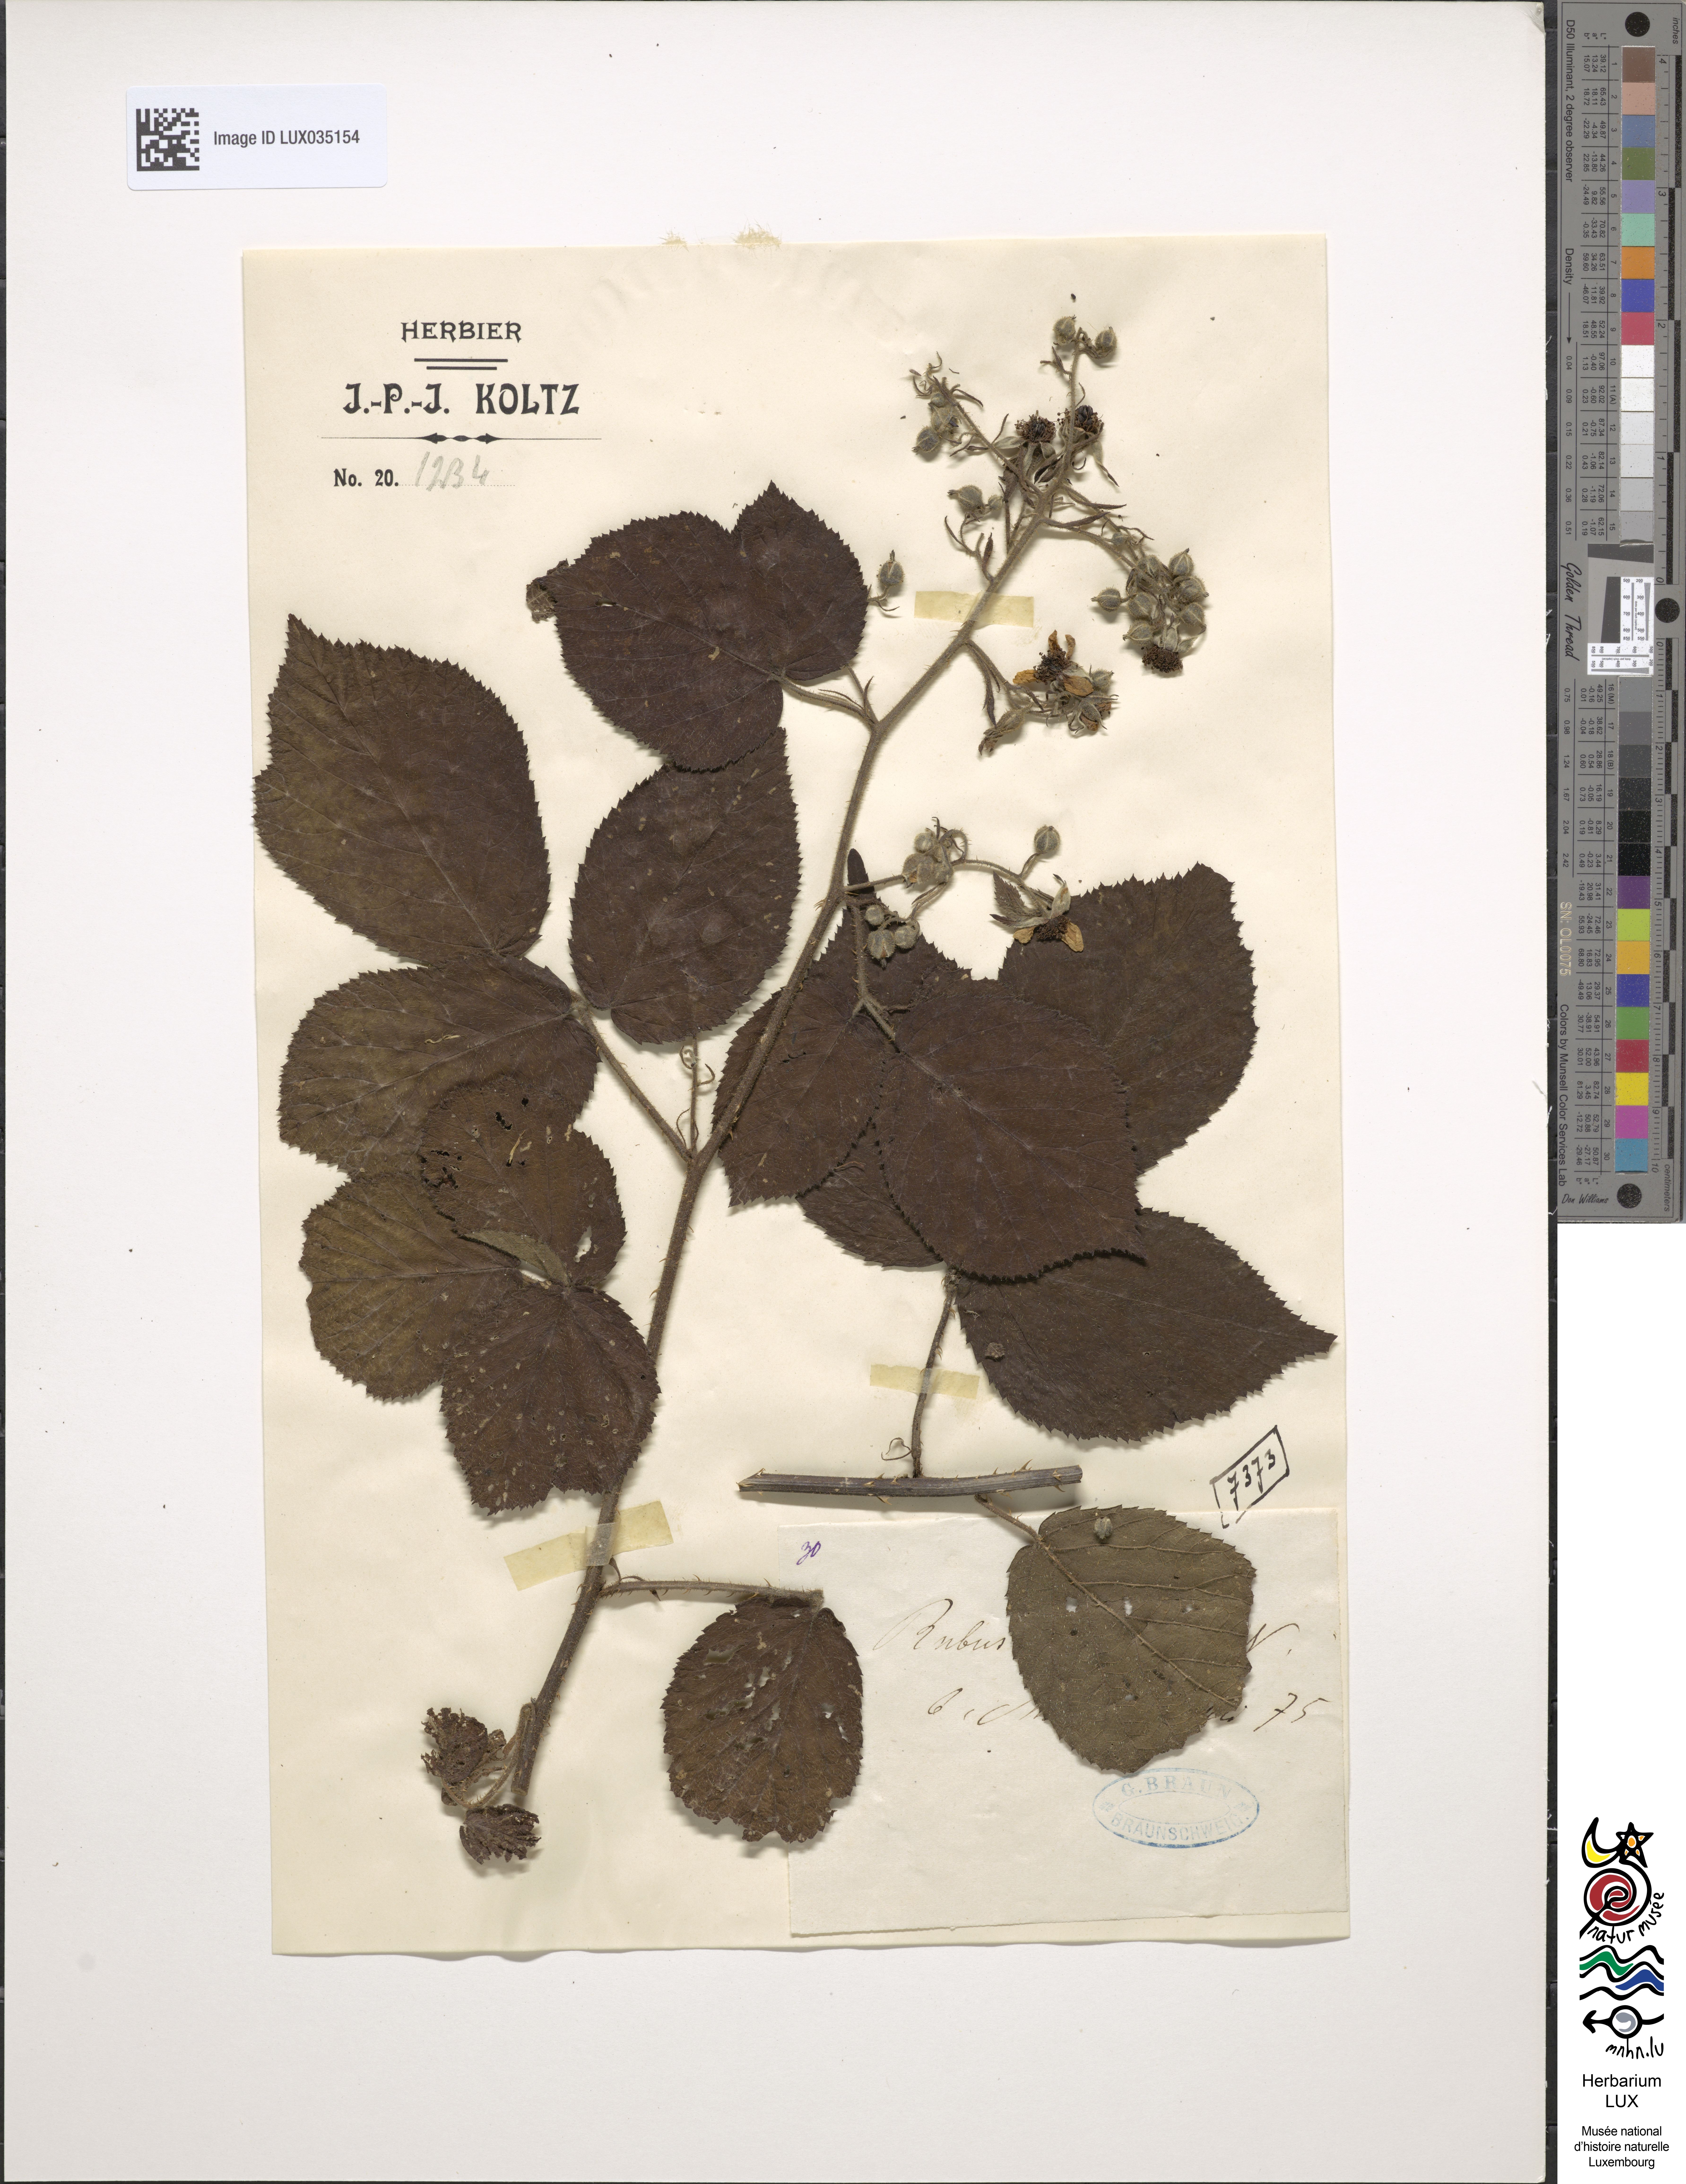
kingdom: Plantae
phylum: Tracheophyta
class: Magnoliopsida
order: Rosales
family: Rosaceae
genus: Rubus
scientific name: Rubus scaber
